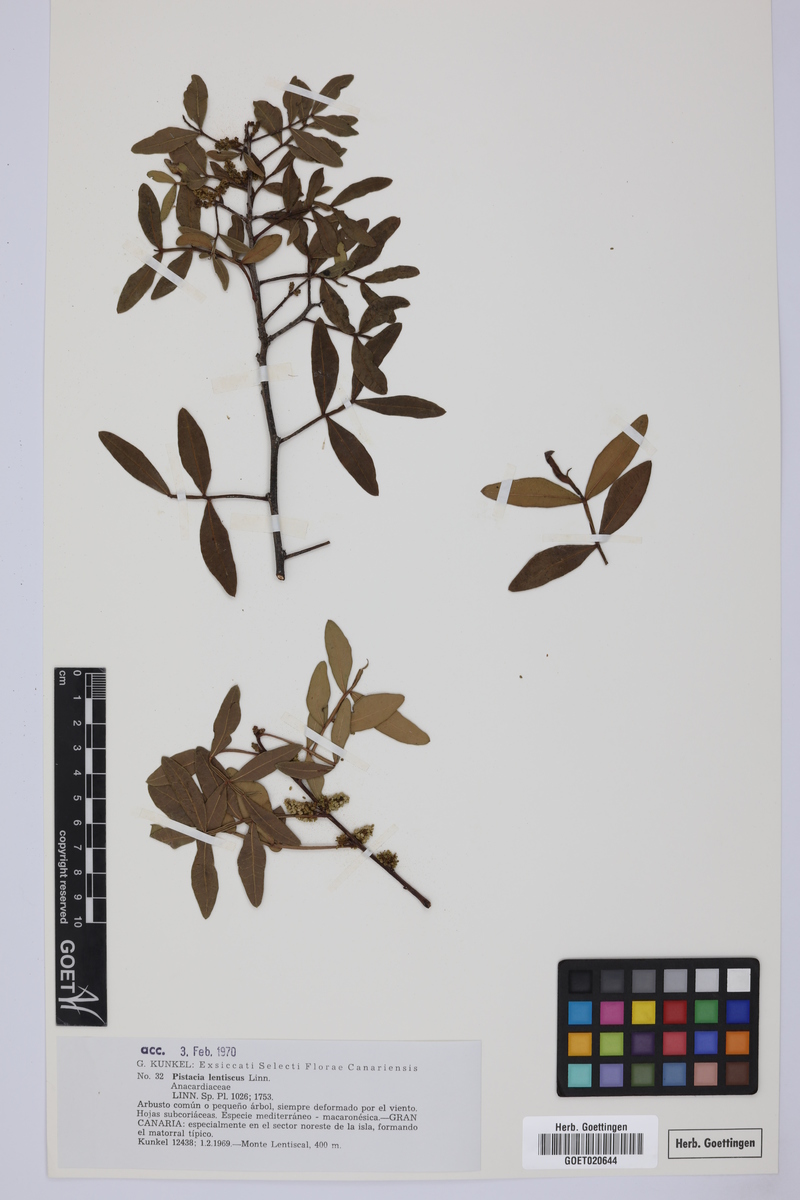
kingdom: Plantae
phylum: Tracheophyta
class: Magnoliopsida
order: Sapindales
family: Anacardiaceae
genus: Pistacia
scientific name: Pistacia lentiscus
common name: Lentisk
